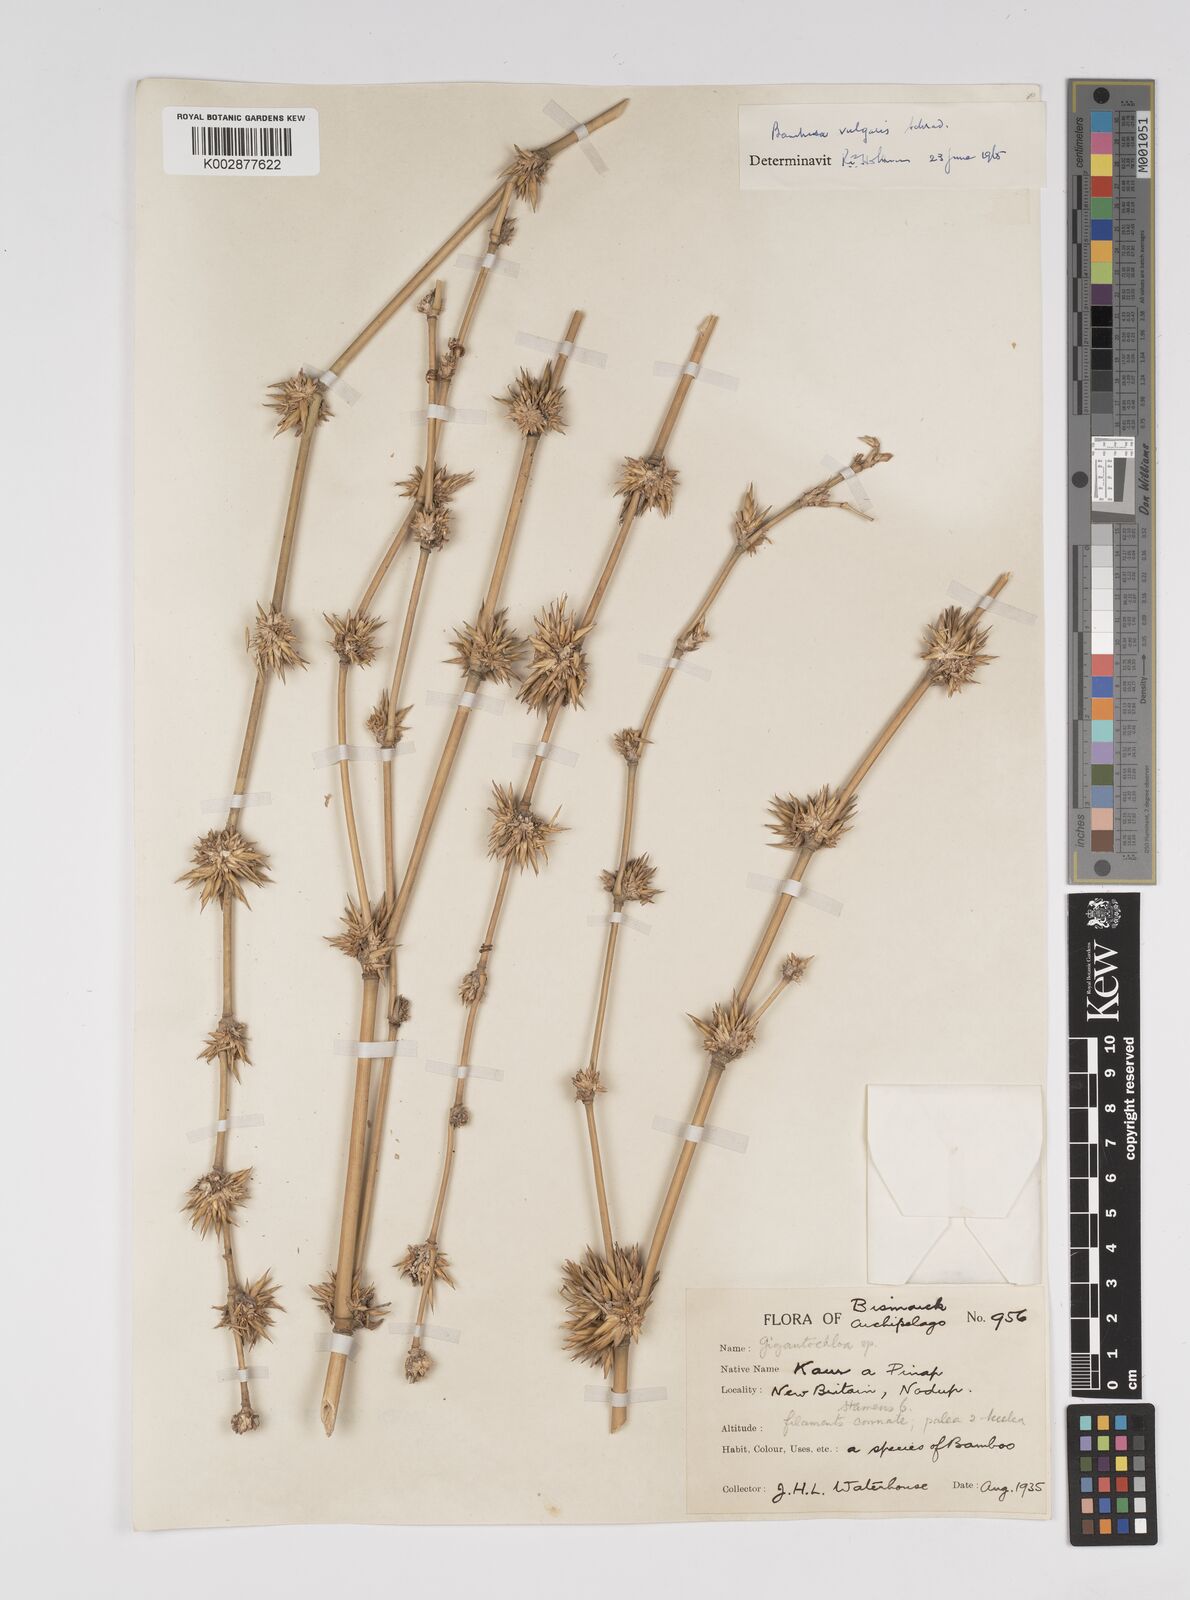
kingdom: Plantae
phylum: Tracheophyta
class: Liliopsida
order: Poales
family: Poaceae
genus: Bambusa
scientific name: Bambusa balcooa
